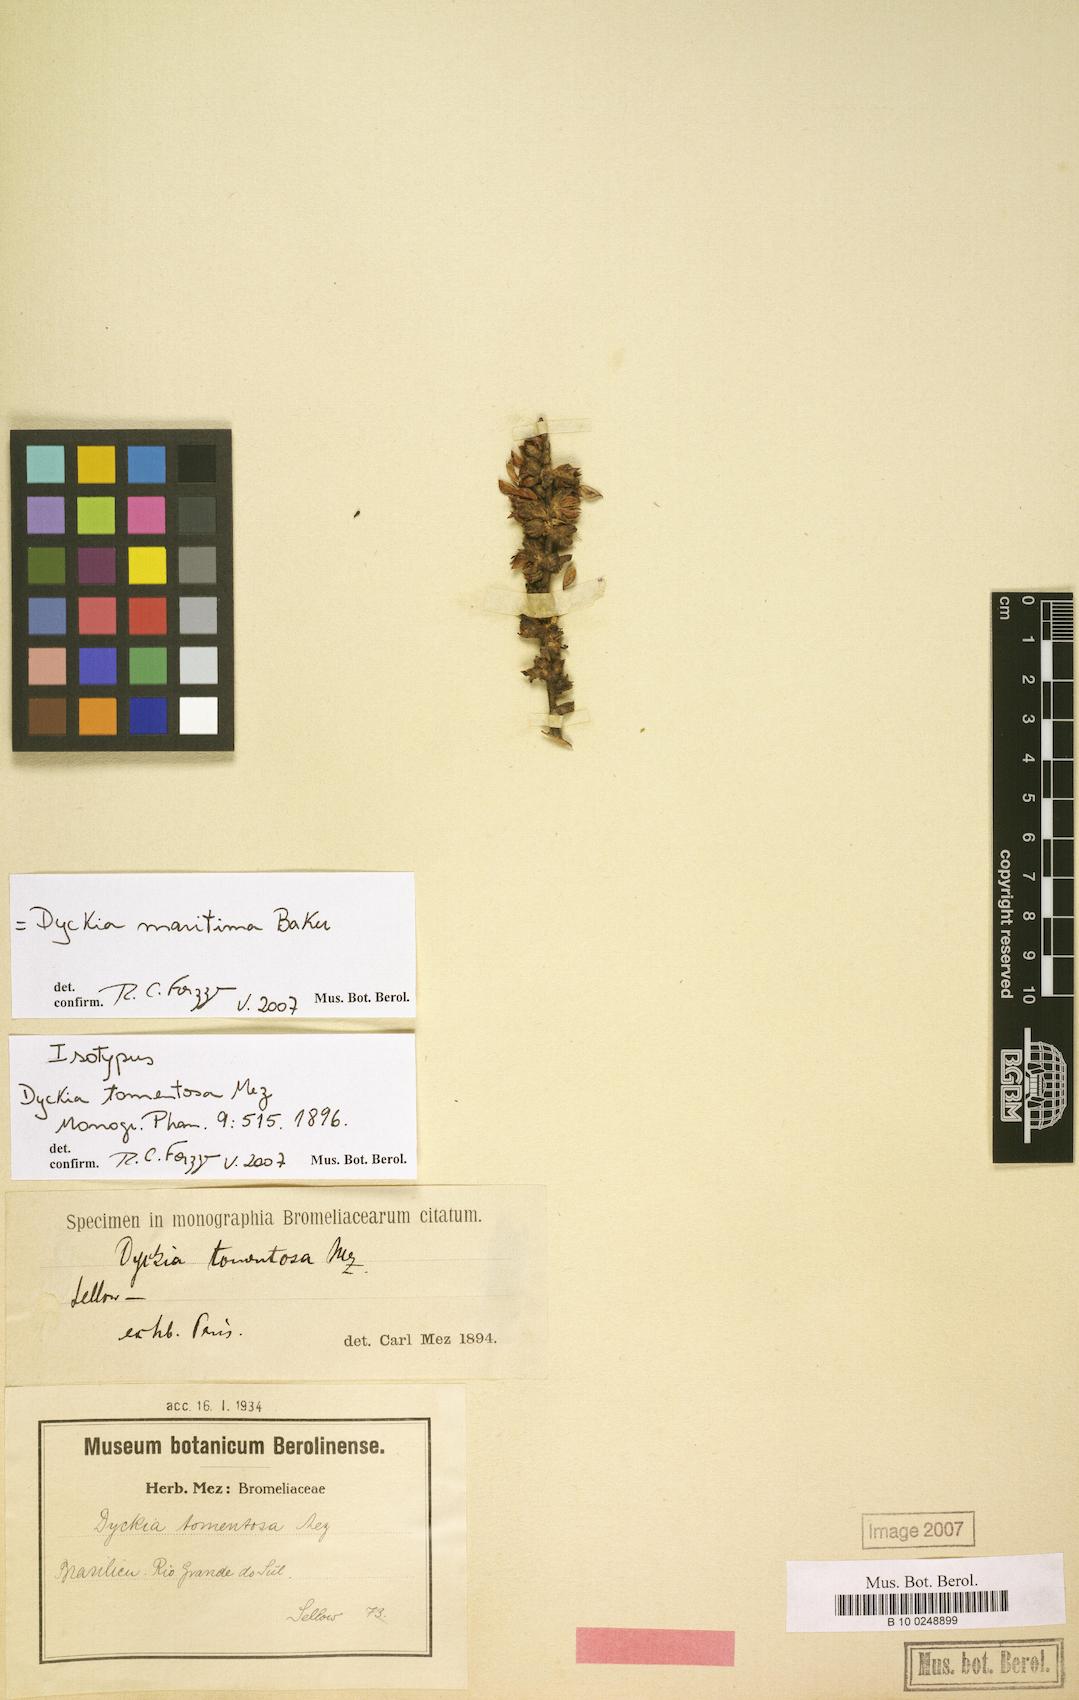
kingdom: Plantae
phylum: Tracheophyta
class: Liliopsida
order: Poales
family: Bromeliaceae
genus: Dyckia
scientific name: Dyckia maritima
